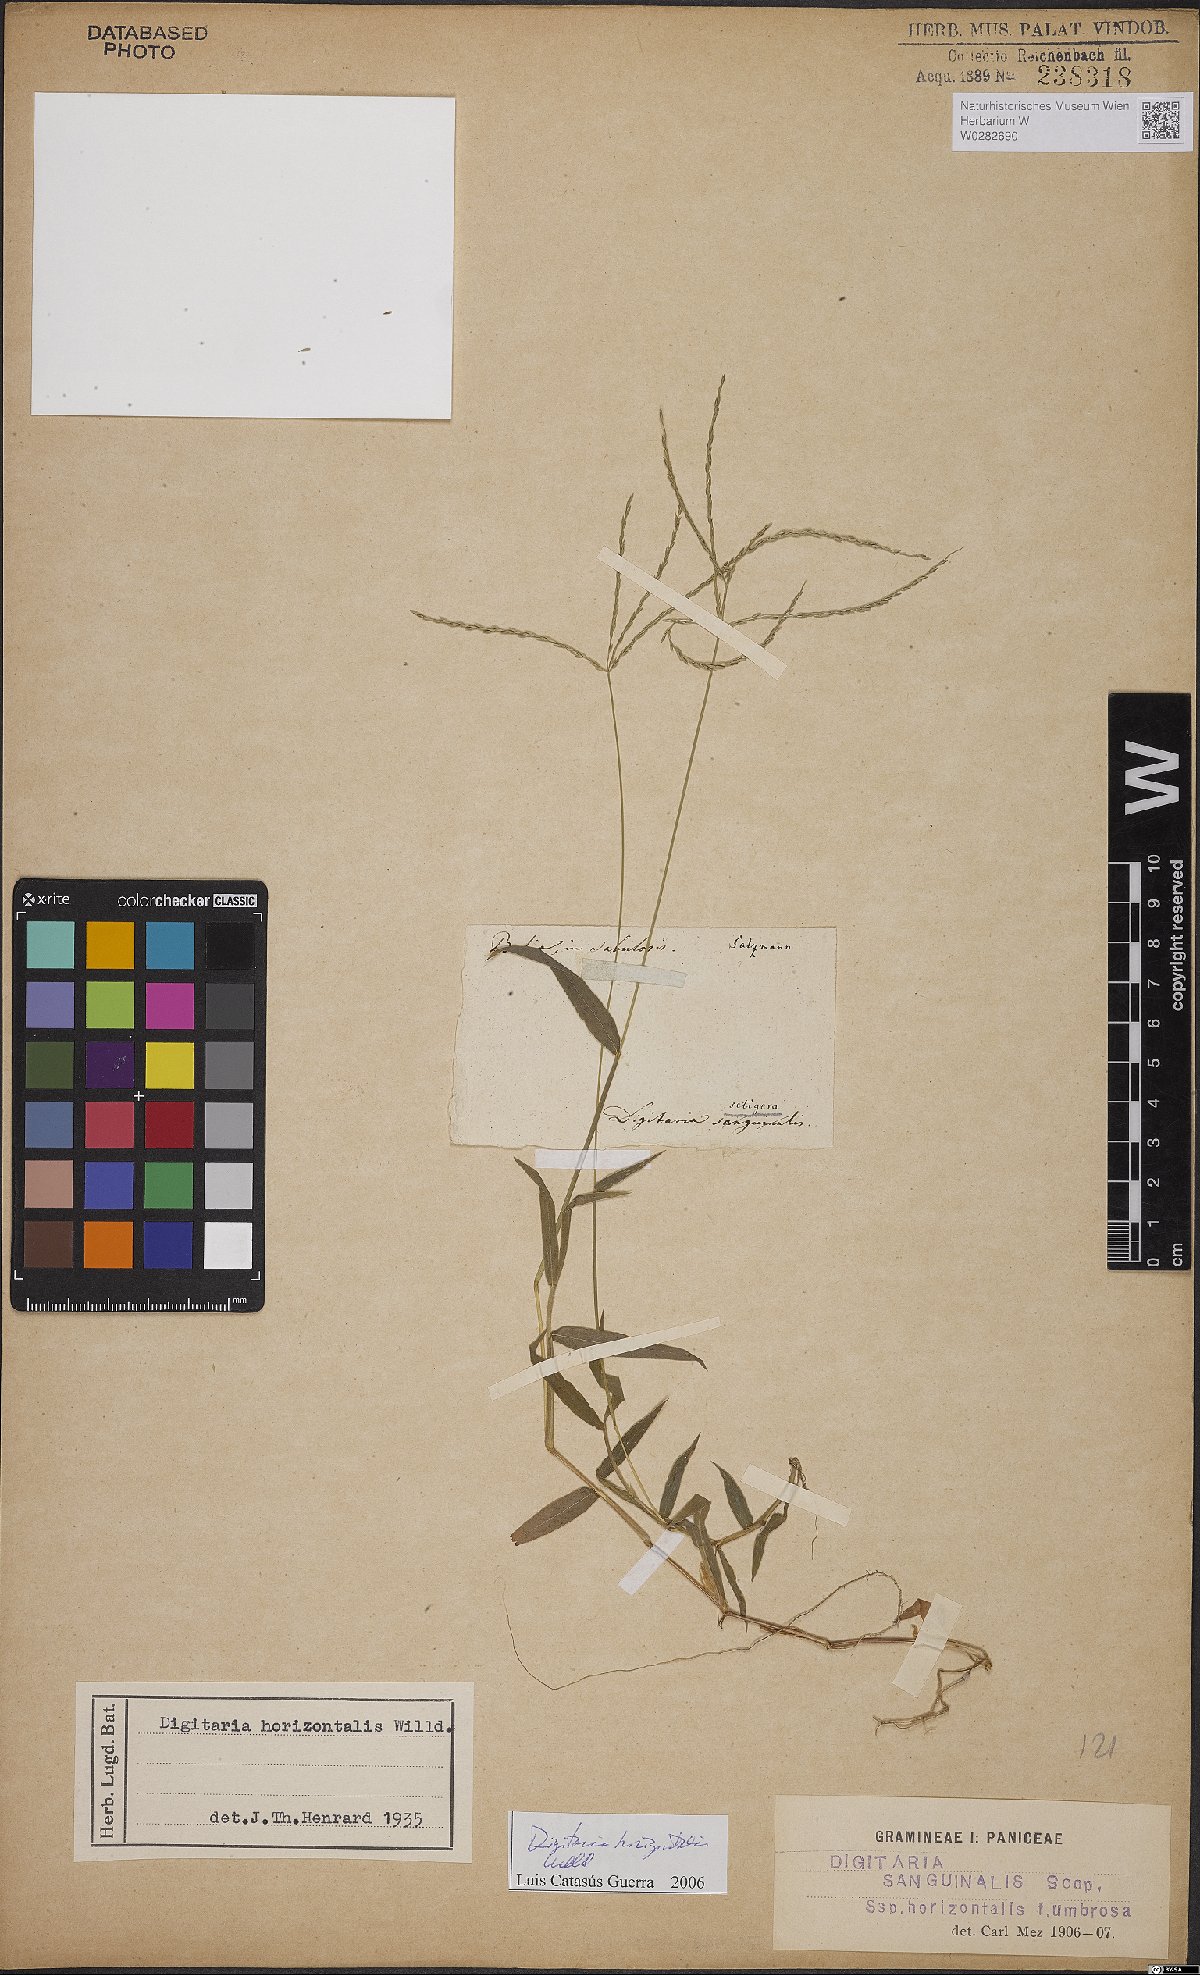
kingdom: Plantae
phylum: Tracheophyta
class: Liliopsida
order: Poales
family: Poaceae
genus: Digitaria
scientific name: Digitaria horizontalis
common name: Jamaican crabgrass
